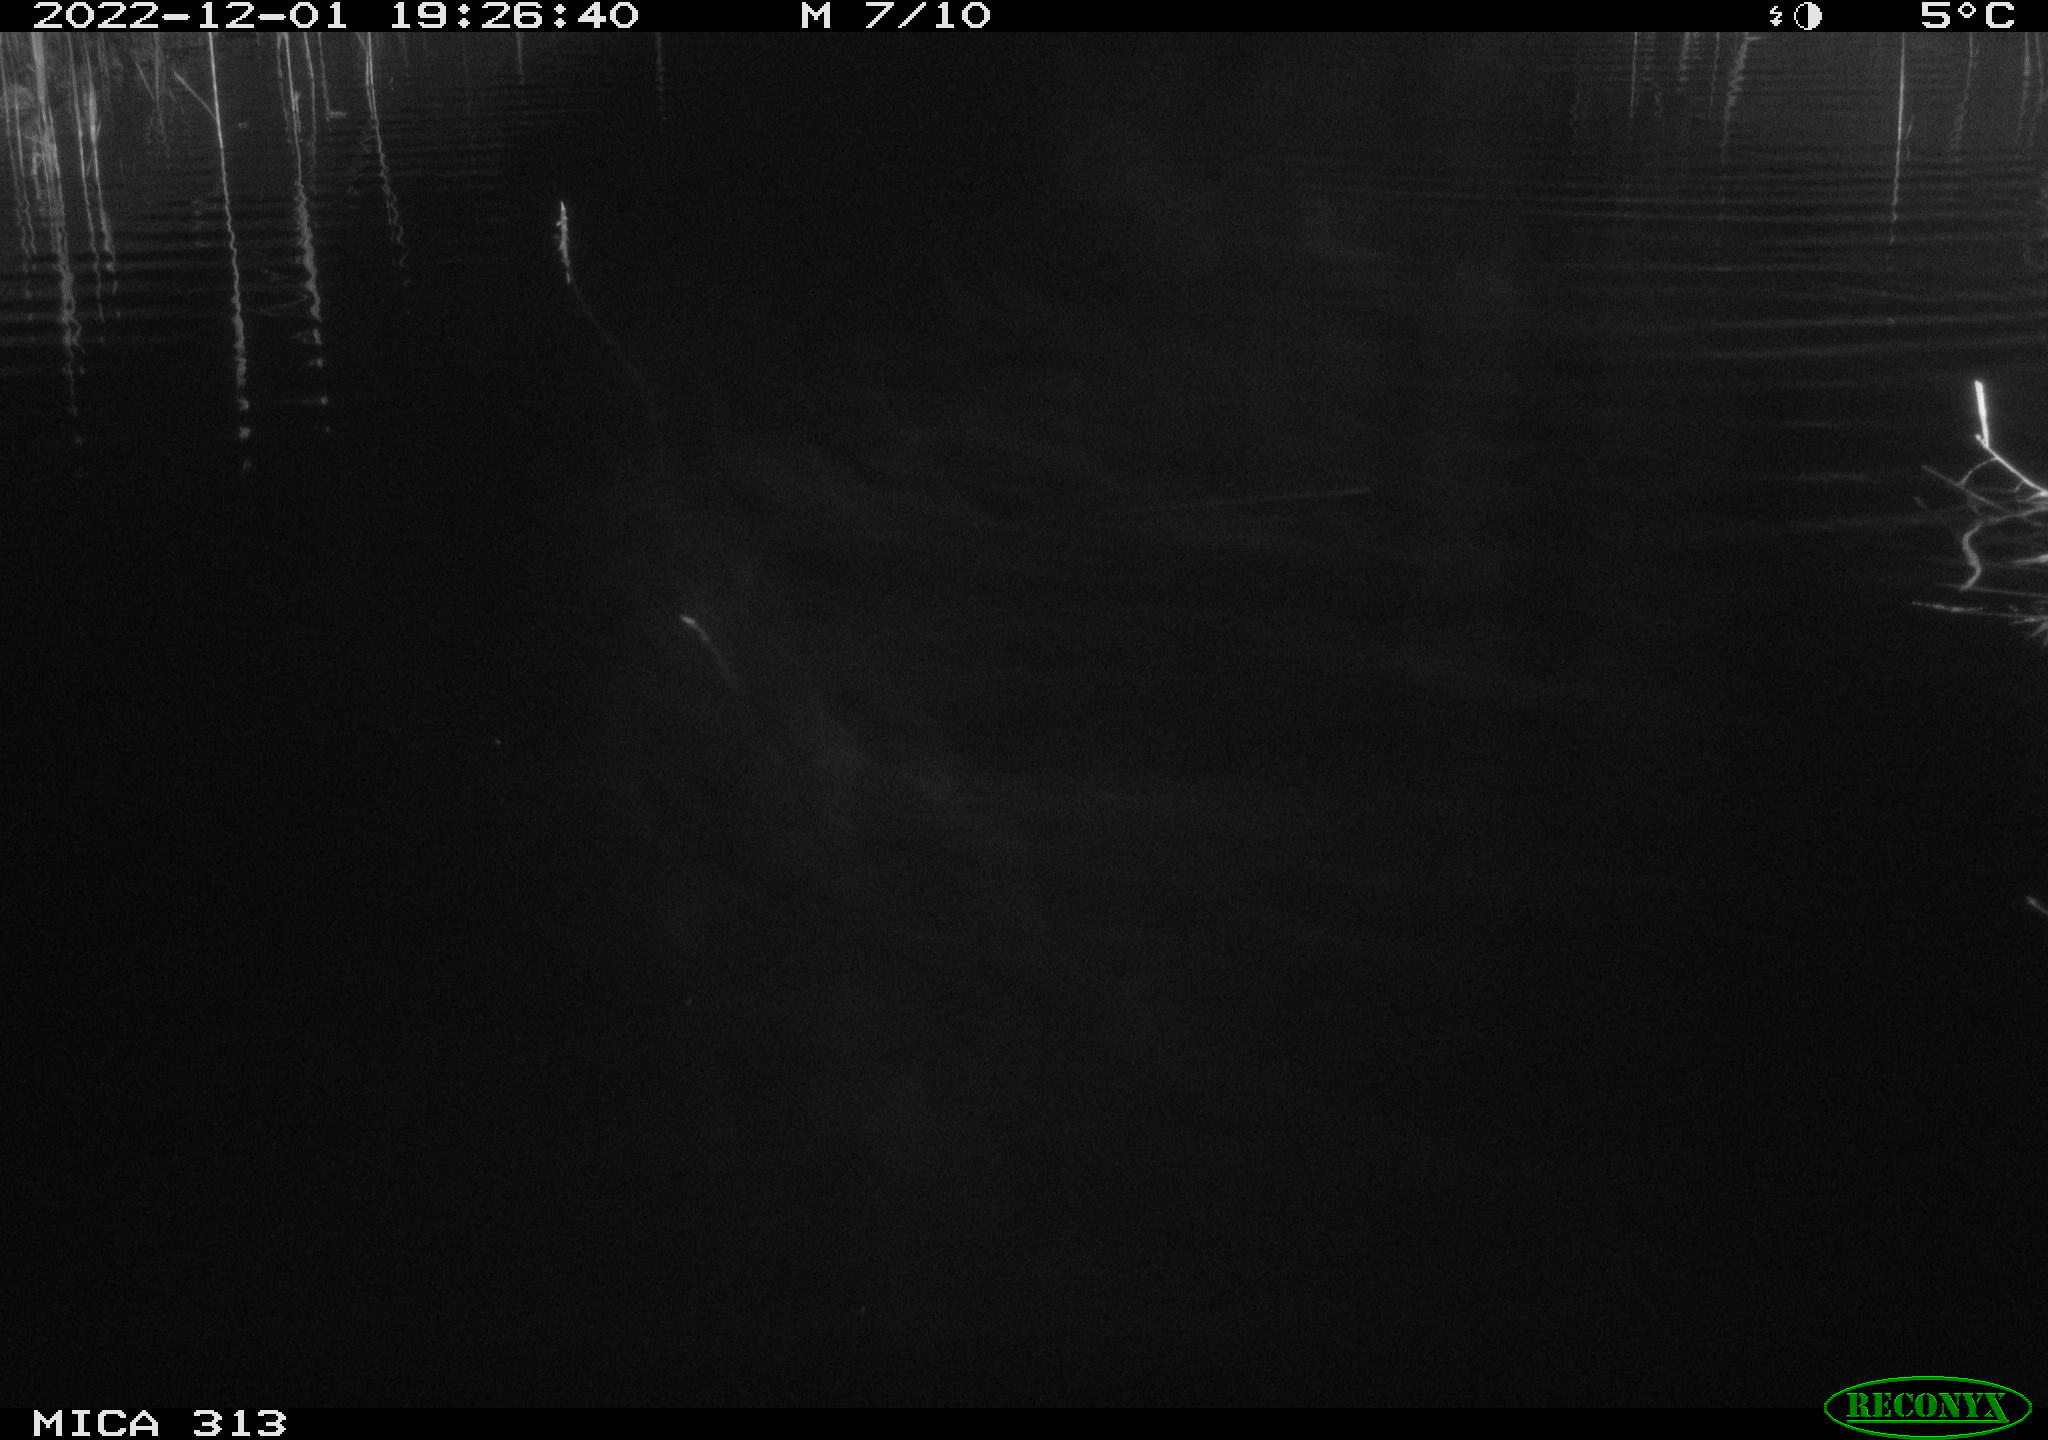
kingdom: Animalia
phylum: Chordata
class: Aves
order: Anseriformes
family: Anatidae
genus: Anas
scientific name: Anas
